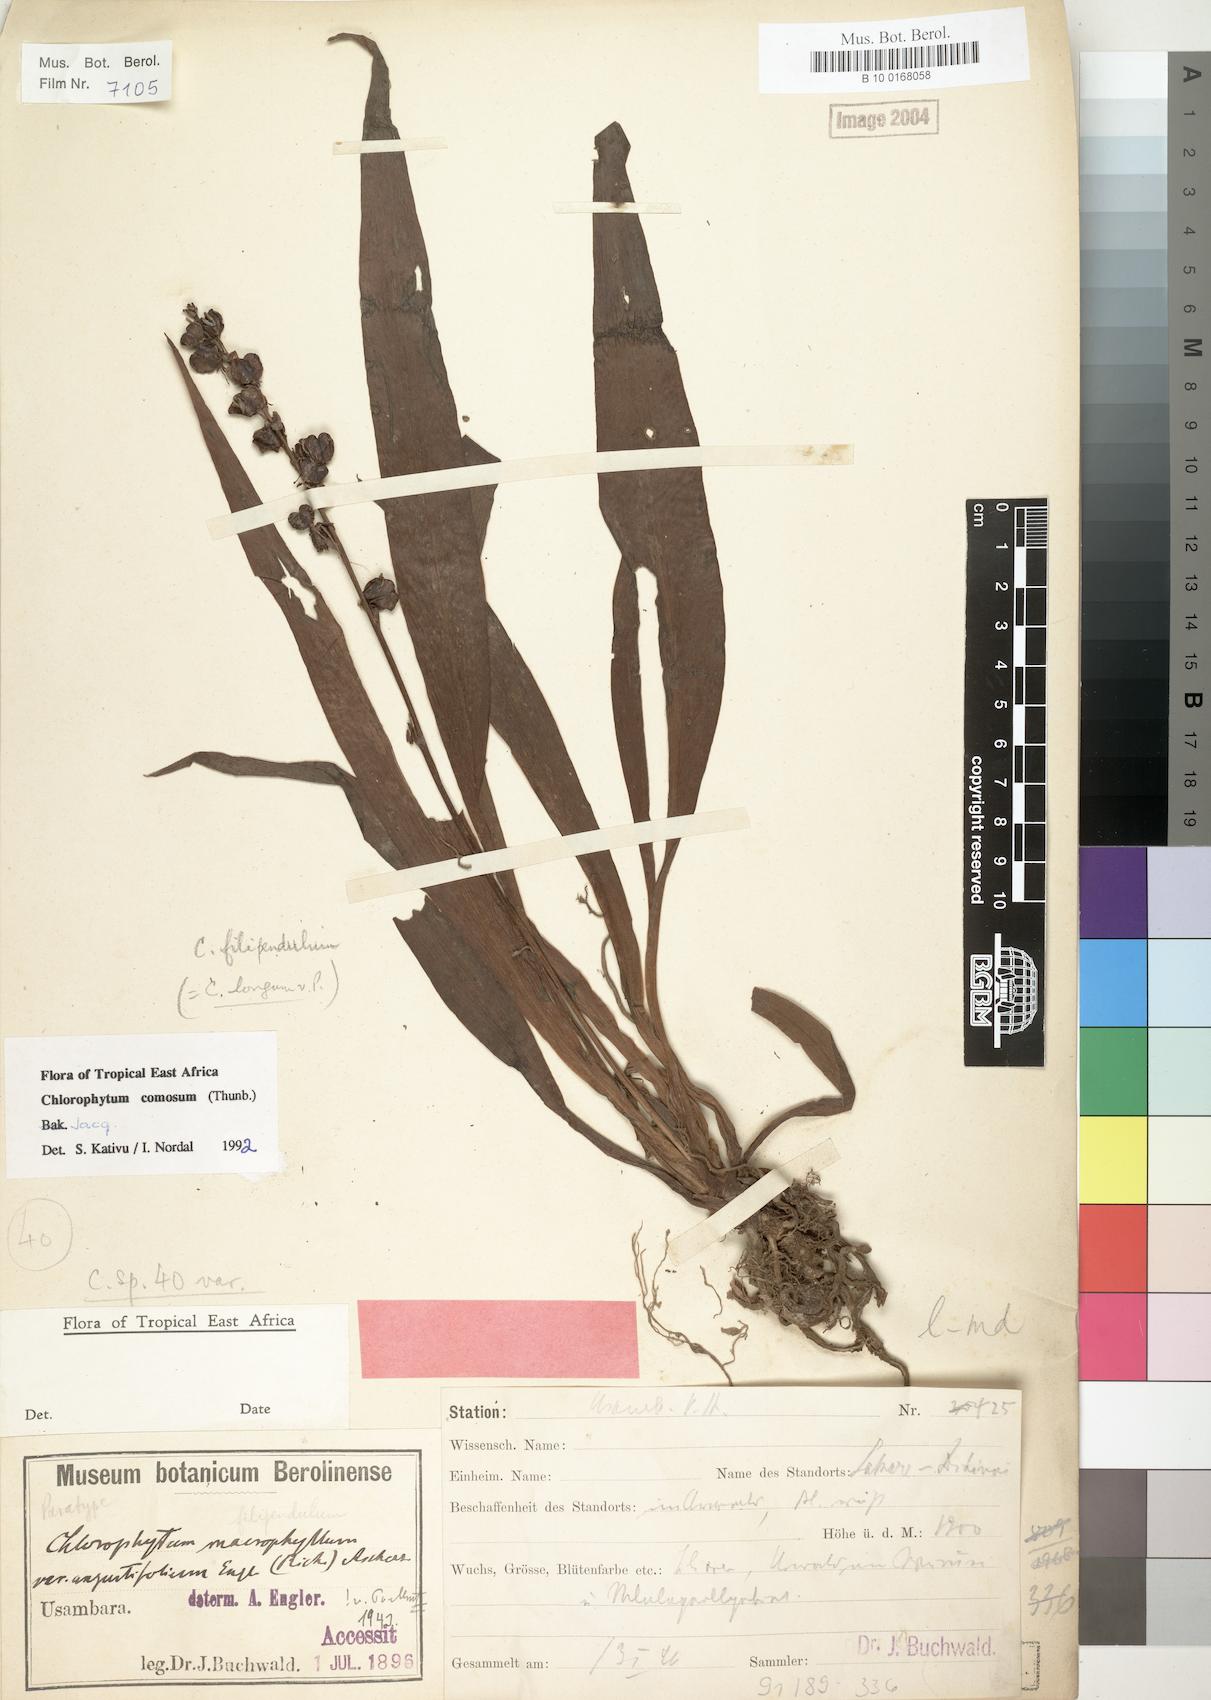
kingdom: Plantae
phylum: Tracheophyta
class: Liliopsida
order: Asparagales
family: Asparagaceae
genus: Chlorophytum
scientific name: Chlorophytum comosum
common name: Spider plant
